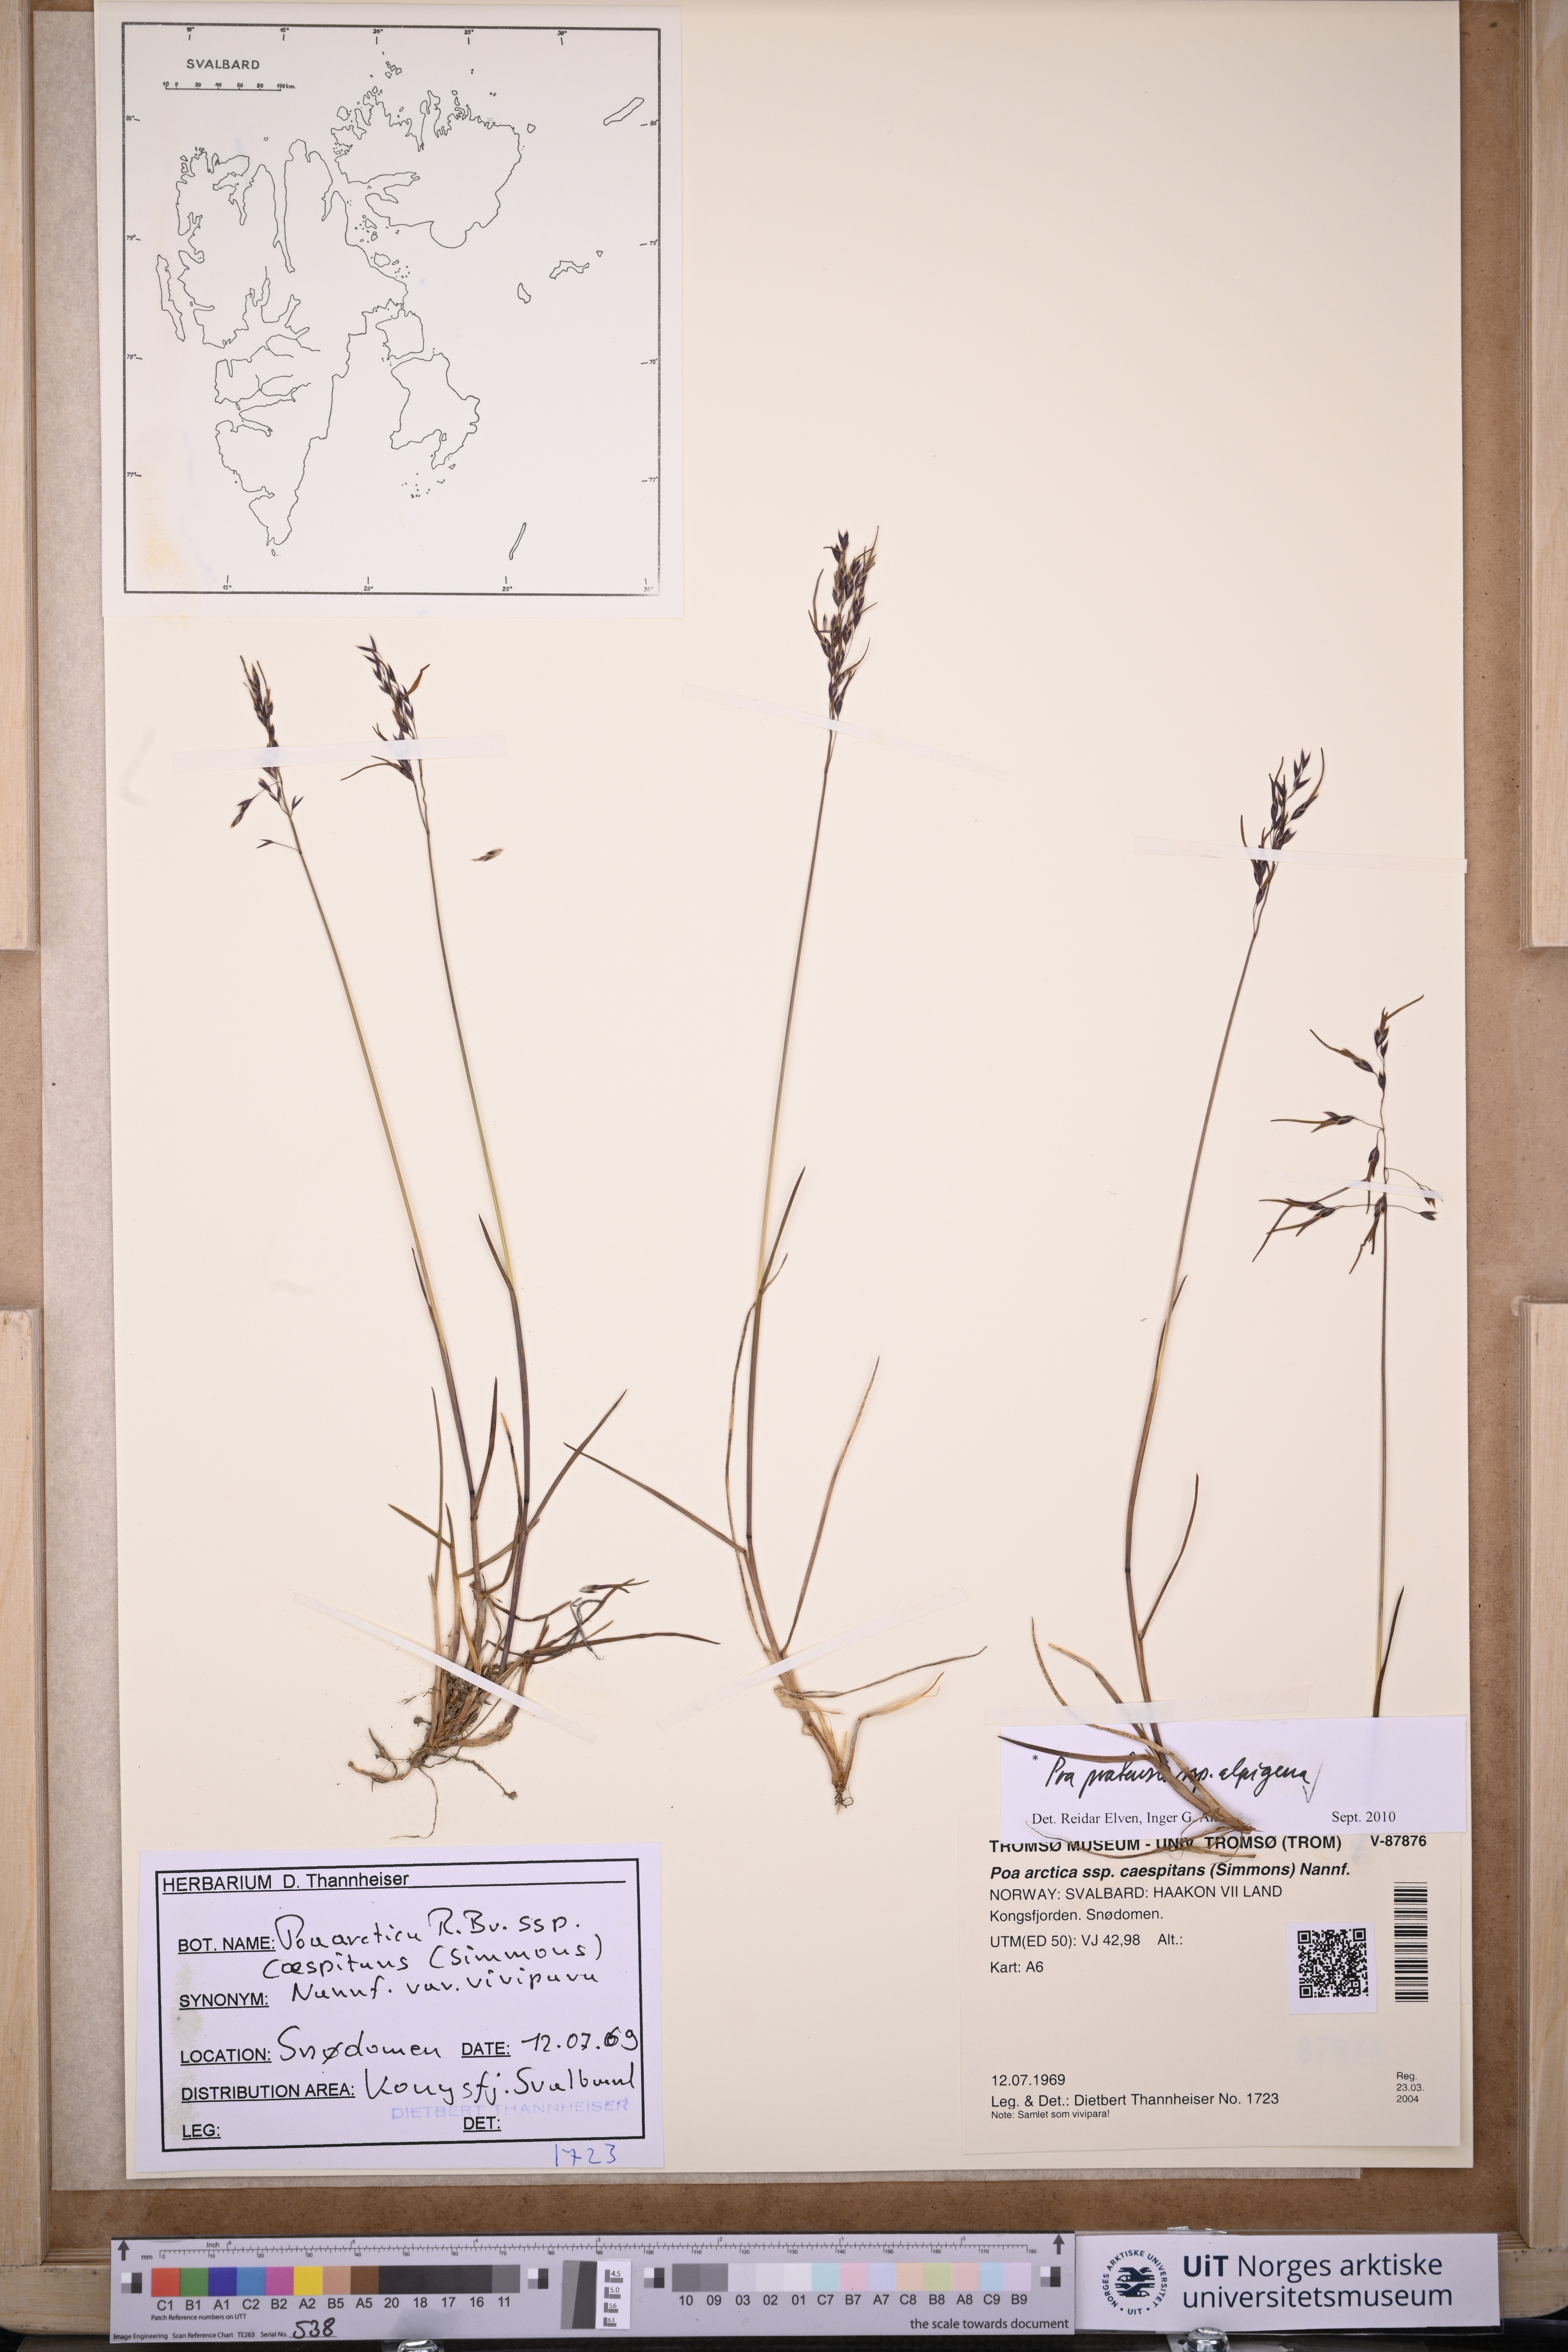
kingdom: Plantae
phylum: Tracheophyta
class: Liliopsida
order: Poales
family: Poaceae
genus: Poa
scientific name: Poa alpigena
